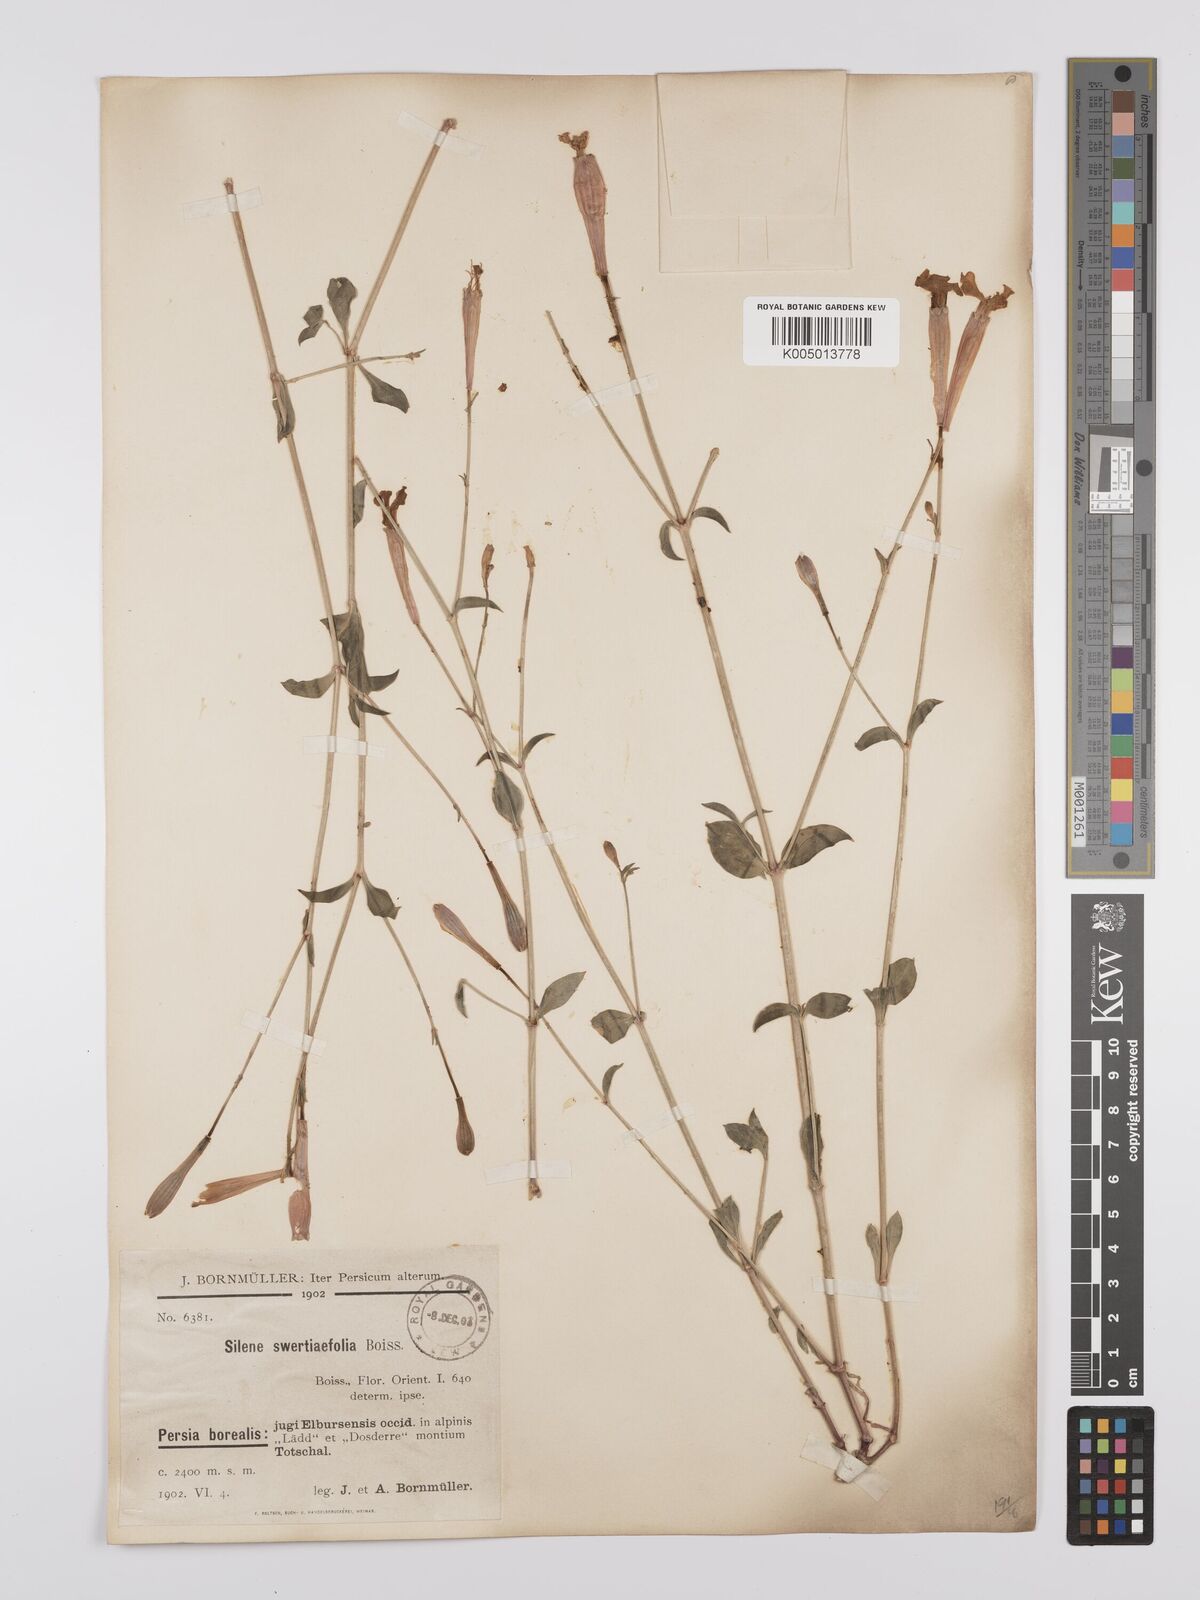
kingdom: Plantae
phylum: Tracheophyta
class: Magnoliopsida
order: Caryophyllales
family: Caryophyllaceae
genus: Silene
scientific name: Silene swertiifolia
